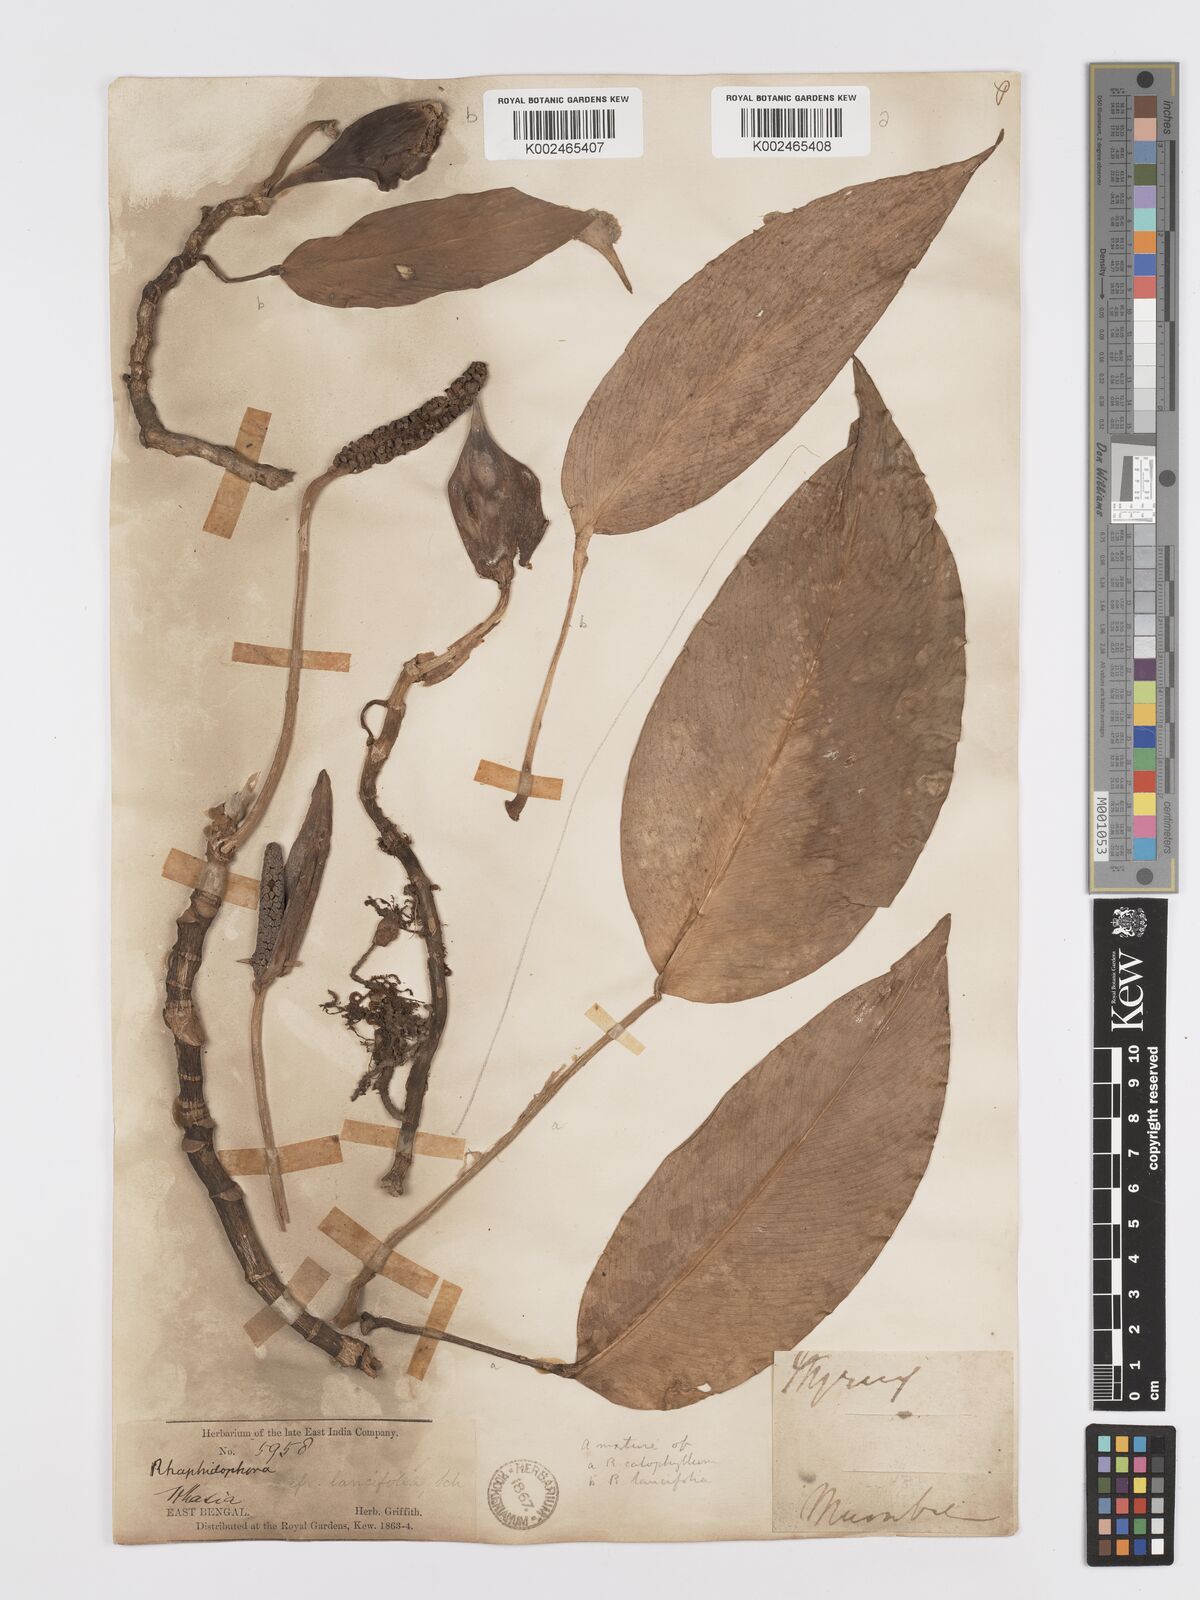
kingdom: Plantae
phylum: Tracheophyta
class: Liliopsida
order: Alismatales
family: Araceae
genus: Rhaphidophora
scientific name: Rhaphidophora peepla
